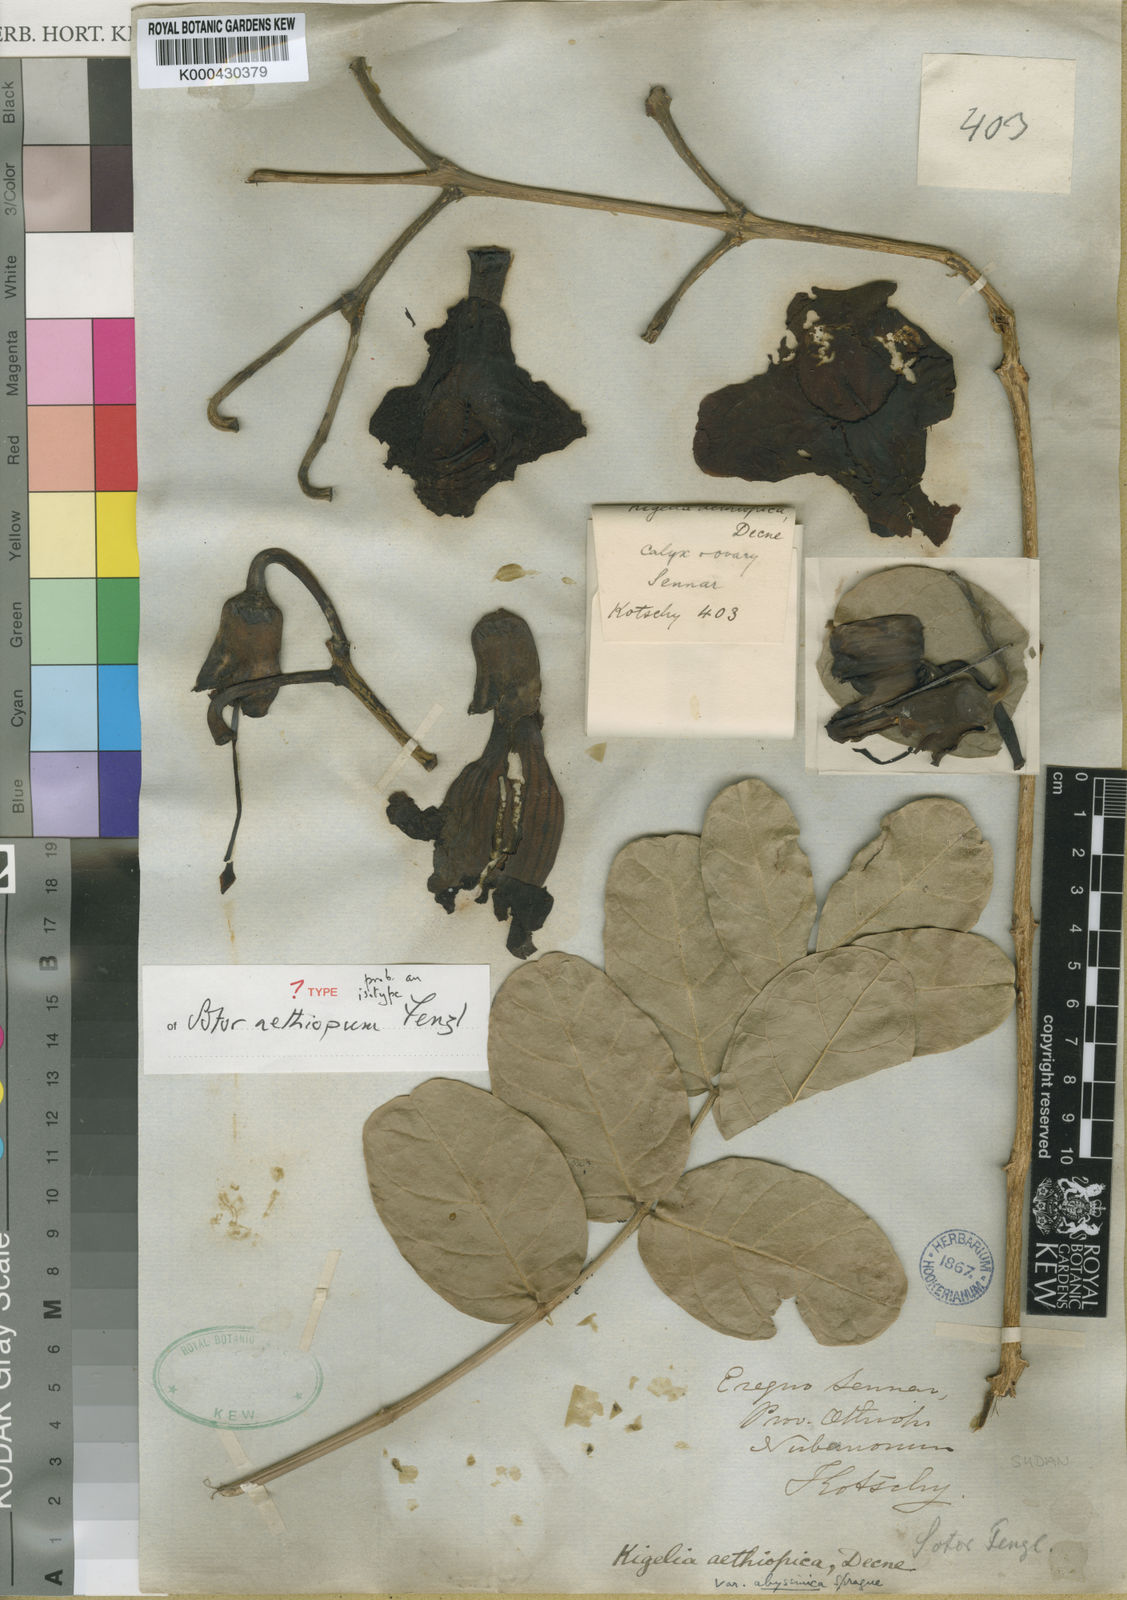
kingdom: Plantae
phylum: Tracheophyta
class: Magnoliopsida
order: Lamiales
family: Bignoniaceae
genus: Kigelia
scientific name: Kigelia africana
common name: Sausage tree
